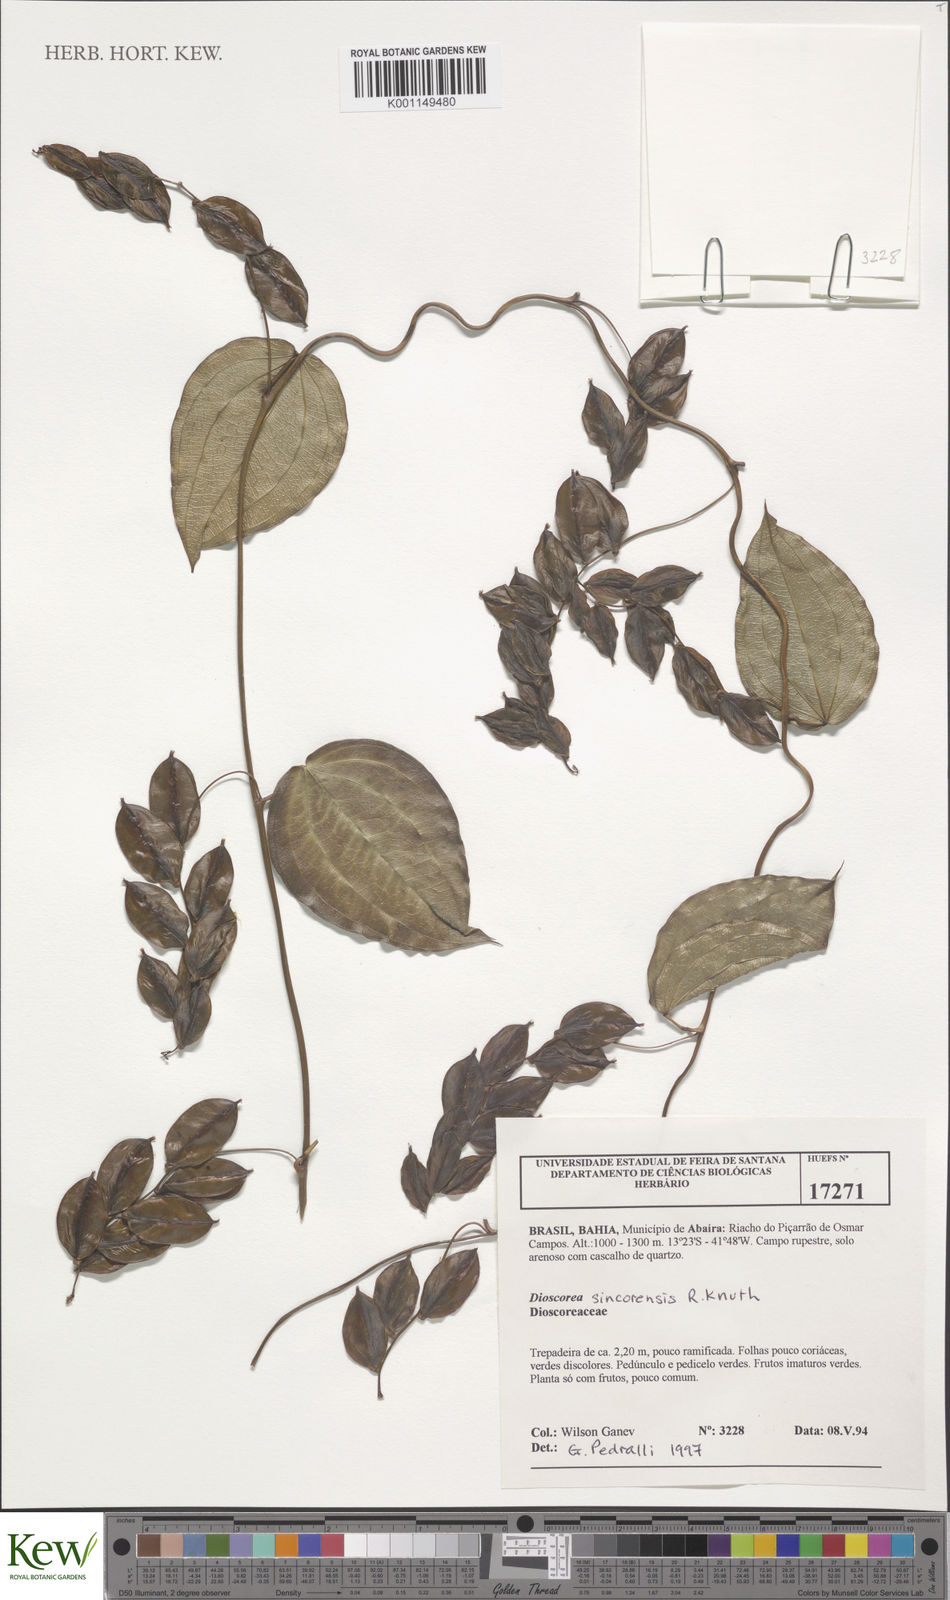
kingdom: Plantae
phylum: Tracheophyta
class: Liliopsida
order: Dioscoreales
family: Dioscoreaceae
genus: Dioscorea
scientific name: Dioscorea sincorensis
